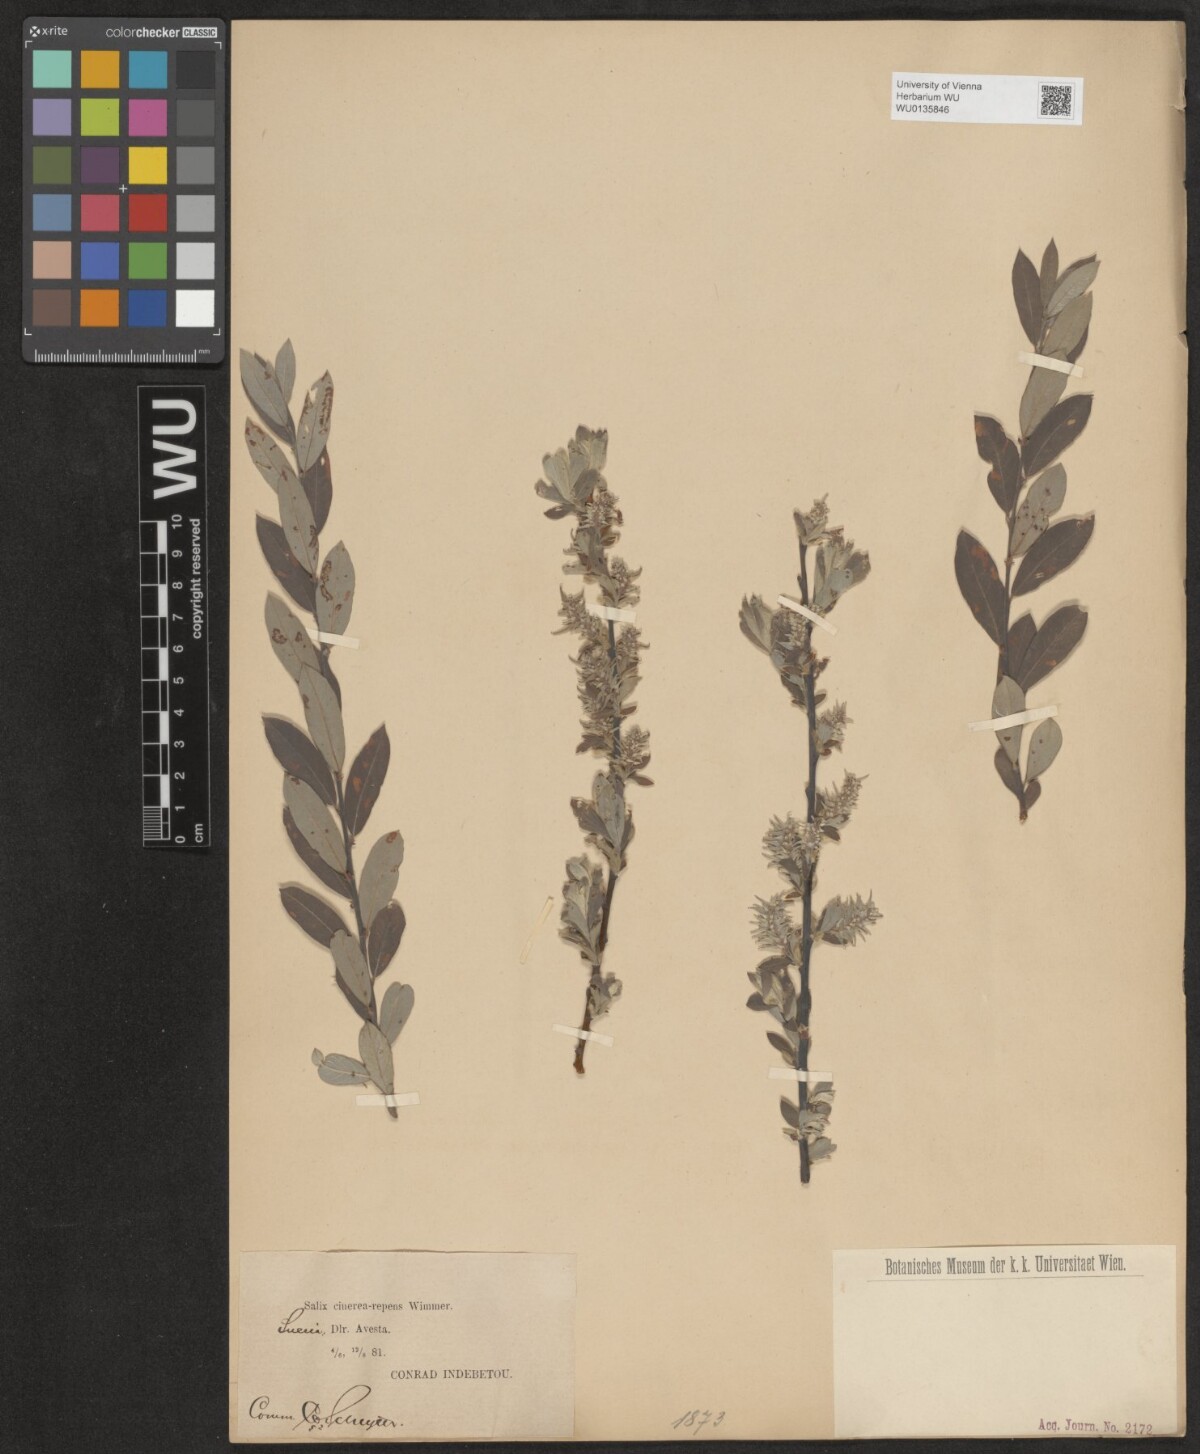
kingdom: Plantae
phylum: Tracheophyta
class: Magnoliopsida
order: Malpighiales
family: Salicaceae
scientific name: Salicaceae
